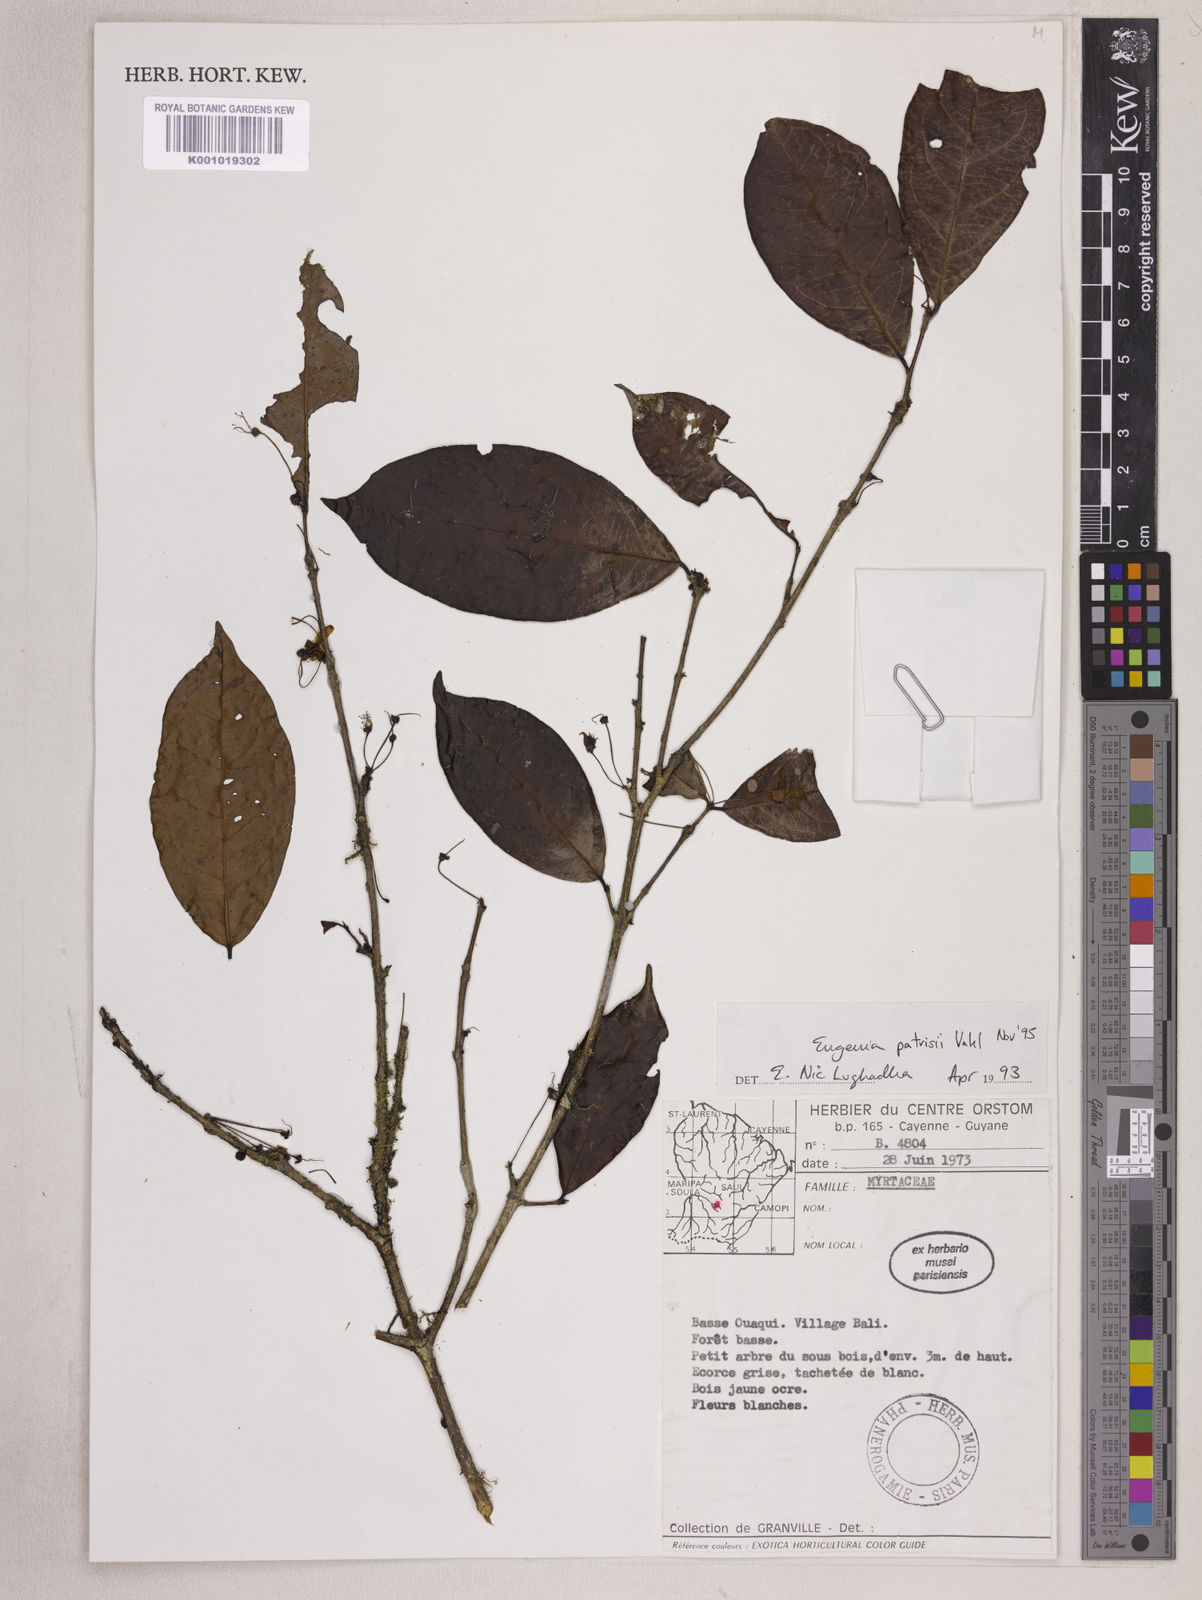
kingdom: Plantae
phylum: Tracheophyta
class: Magnoliopsida
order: Myrtales
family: Myrtaceae
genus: Eugenia
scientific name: Eugenia patrisii
